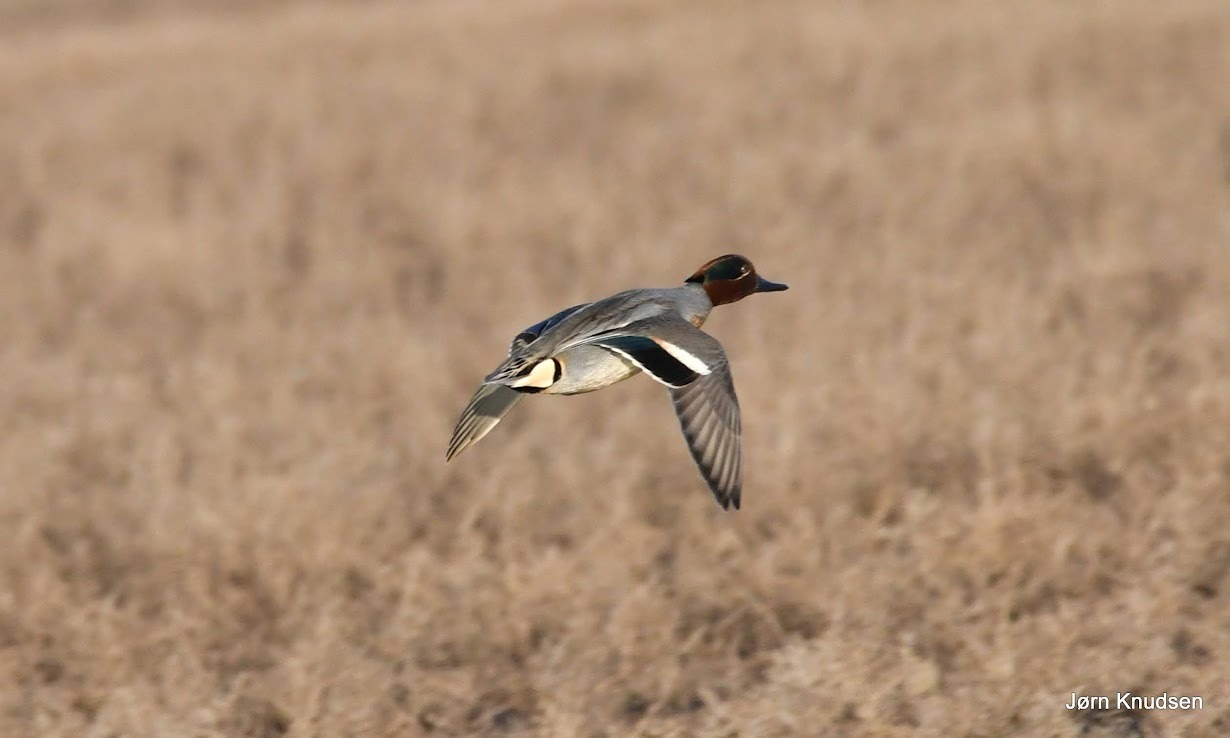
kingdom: Animalia
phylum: Chordata
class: Aves
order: Anseriformes
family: Anatidae
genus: Anas
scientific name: Anas crecca
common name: Krikand
